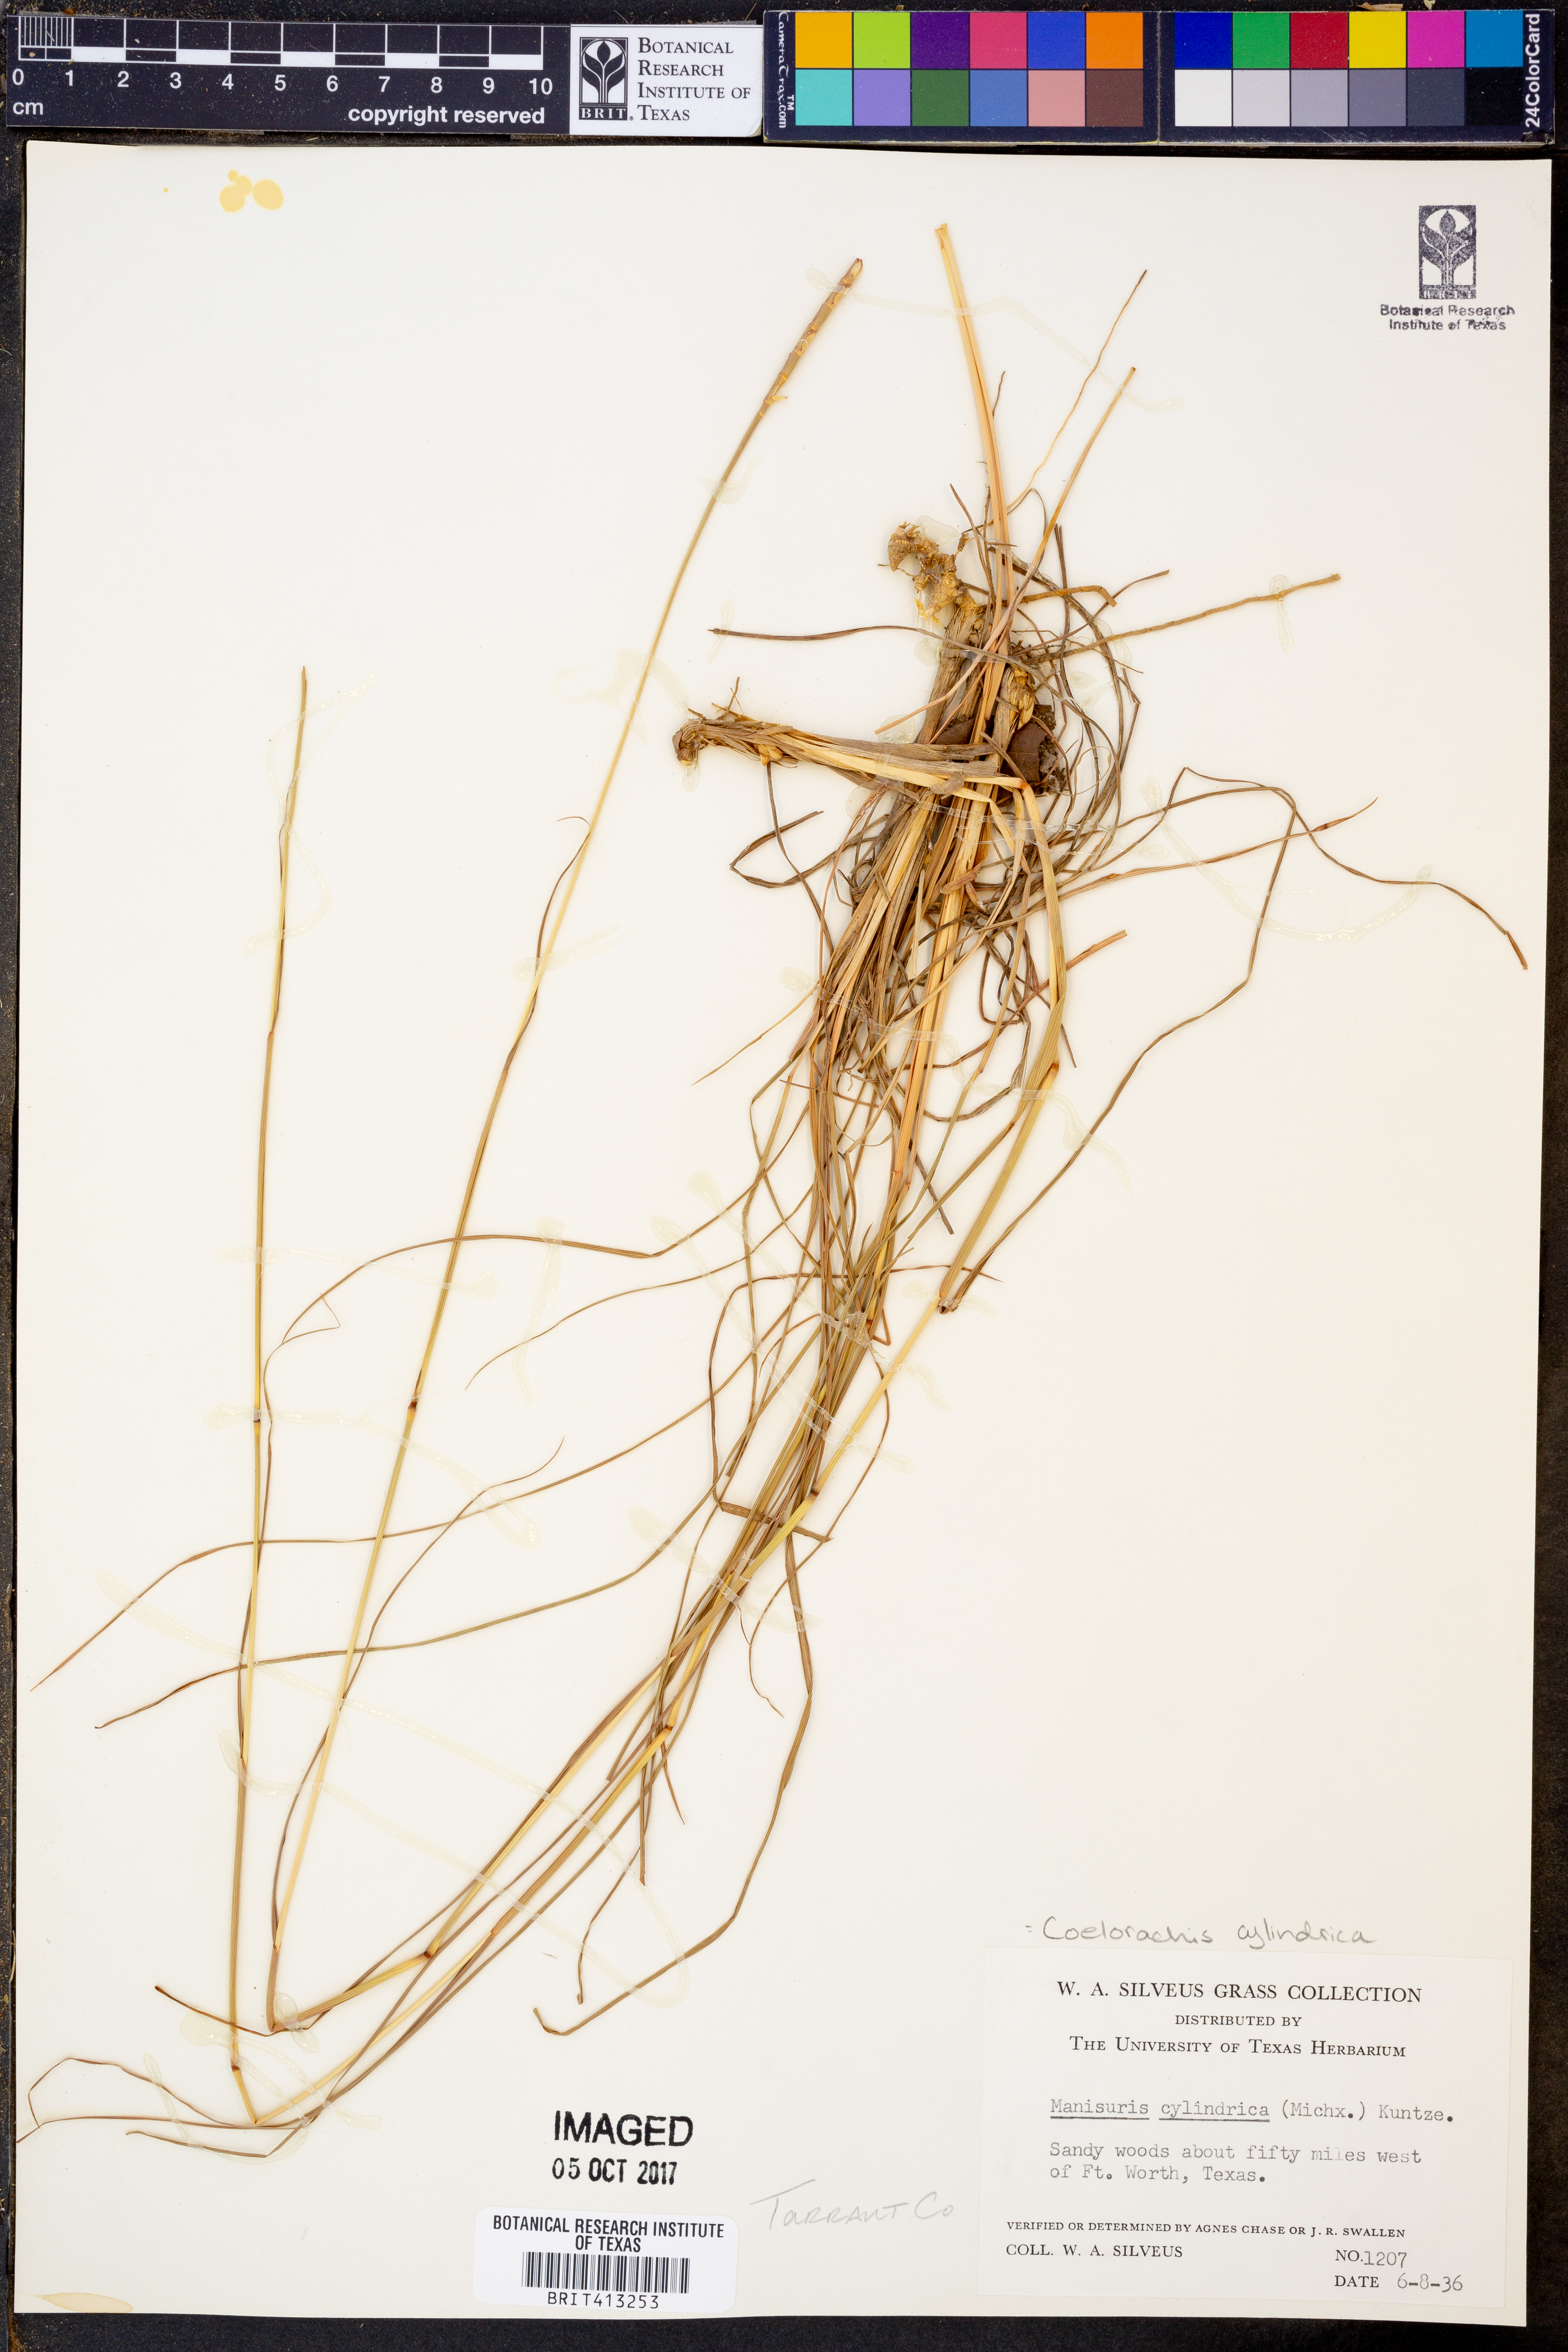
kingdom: Plantae
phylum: Tracheophyta
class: Liliopsida
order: Poales
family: Poaceae
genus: Rottboellia
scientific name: Rottboellia campestris
